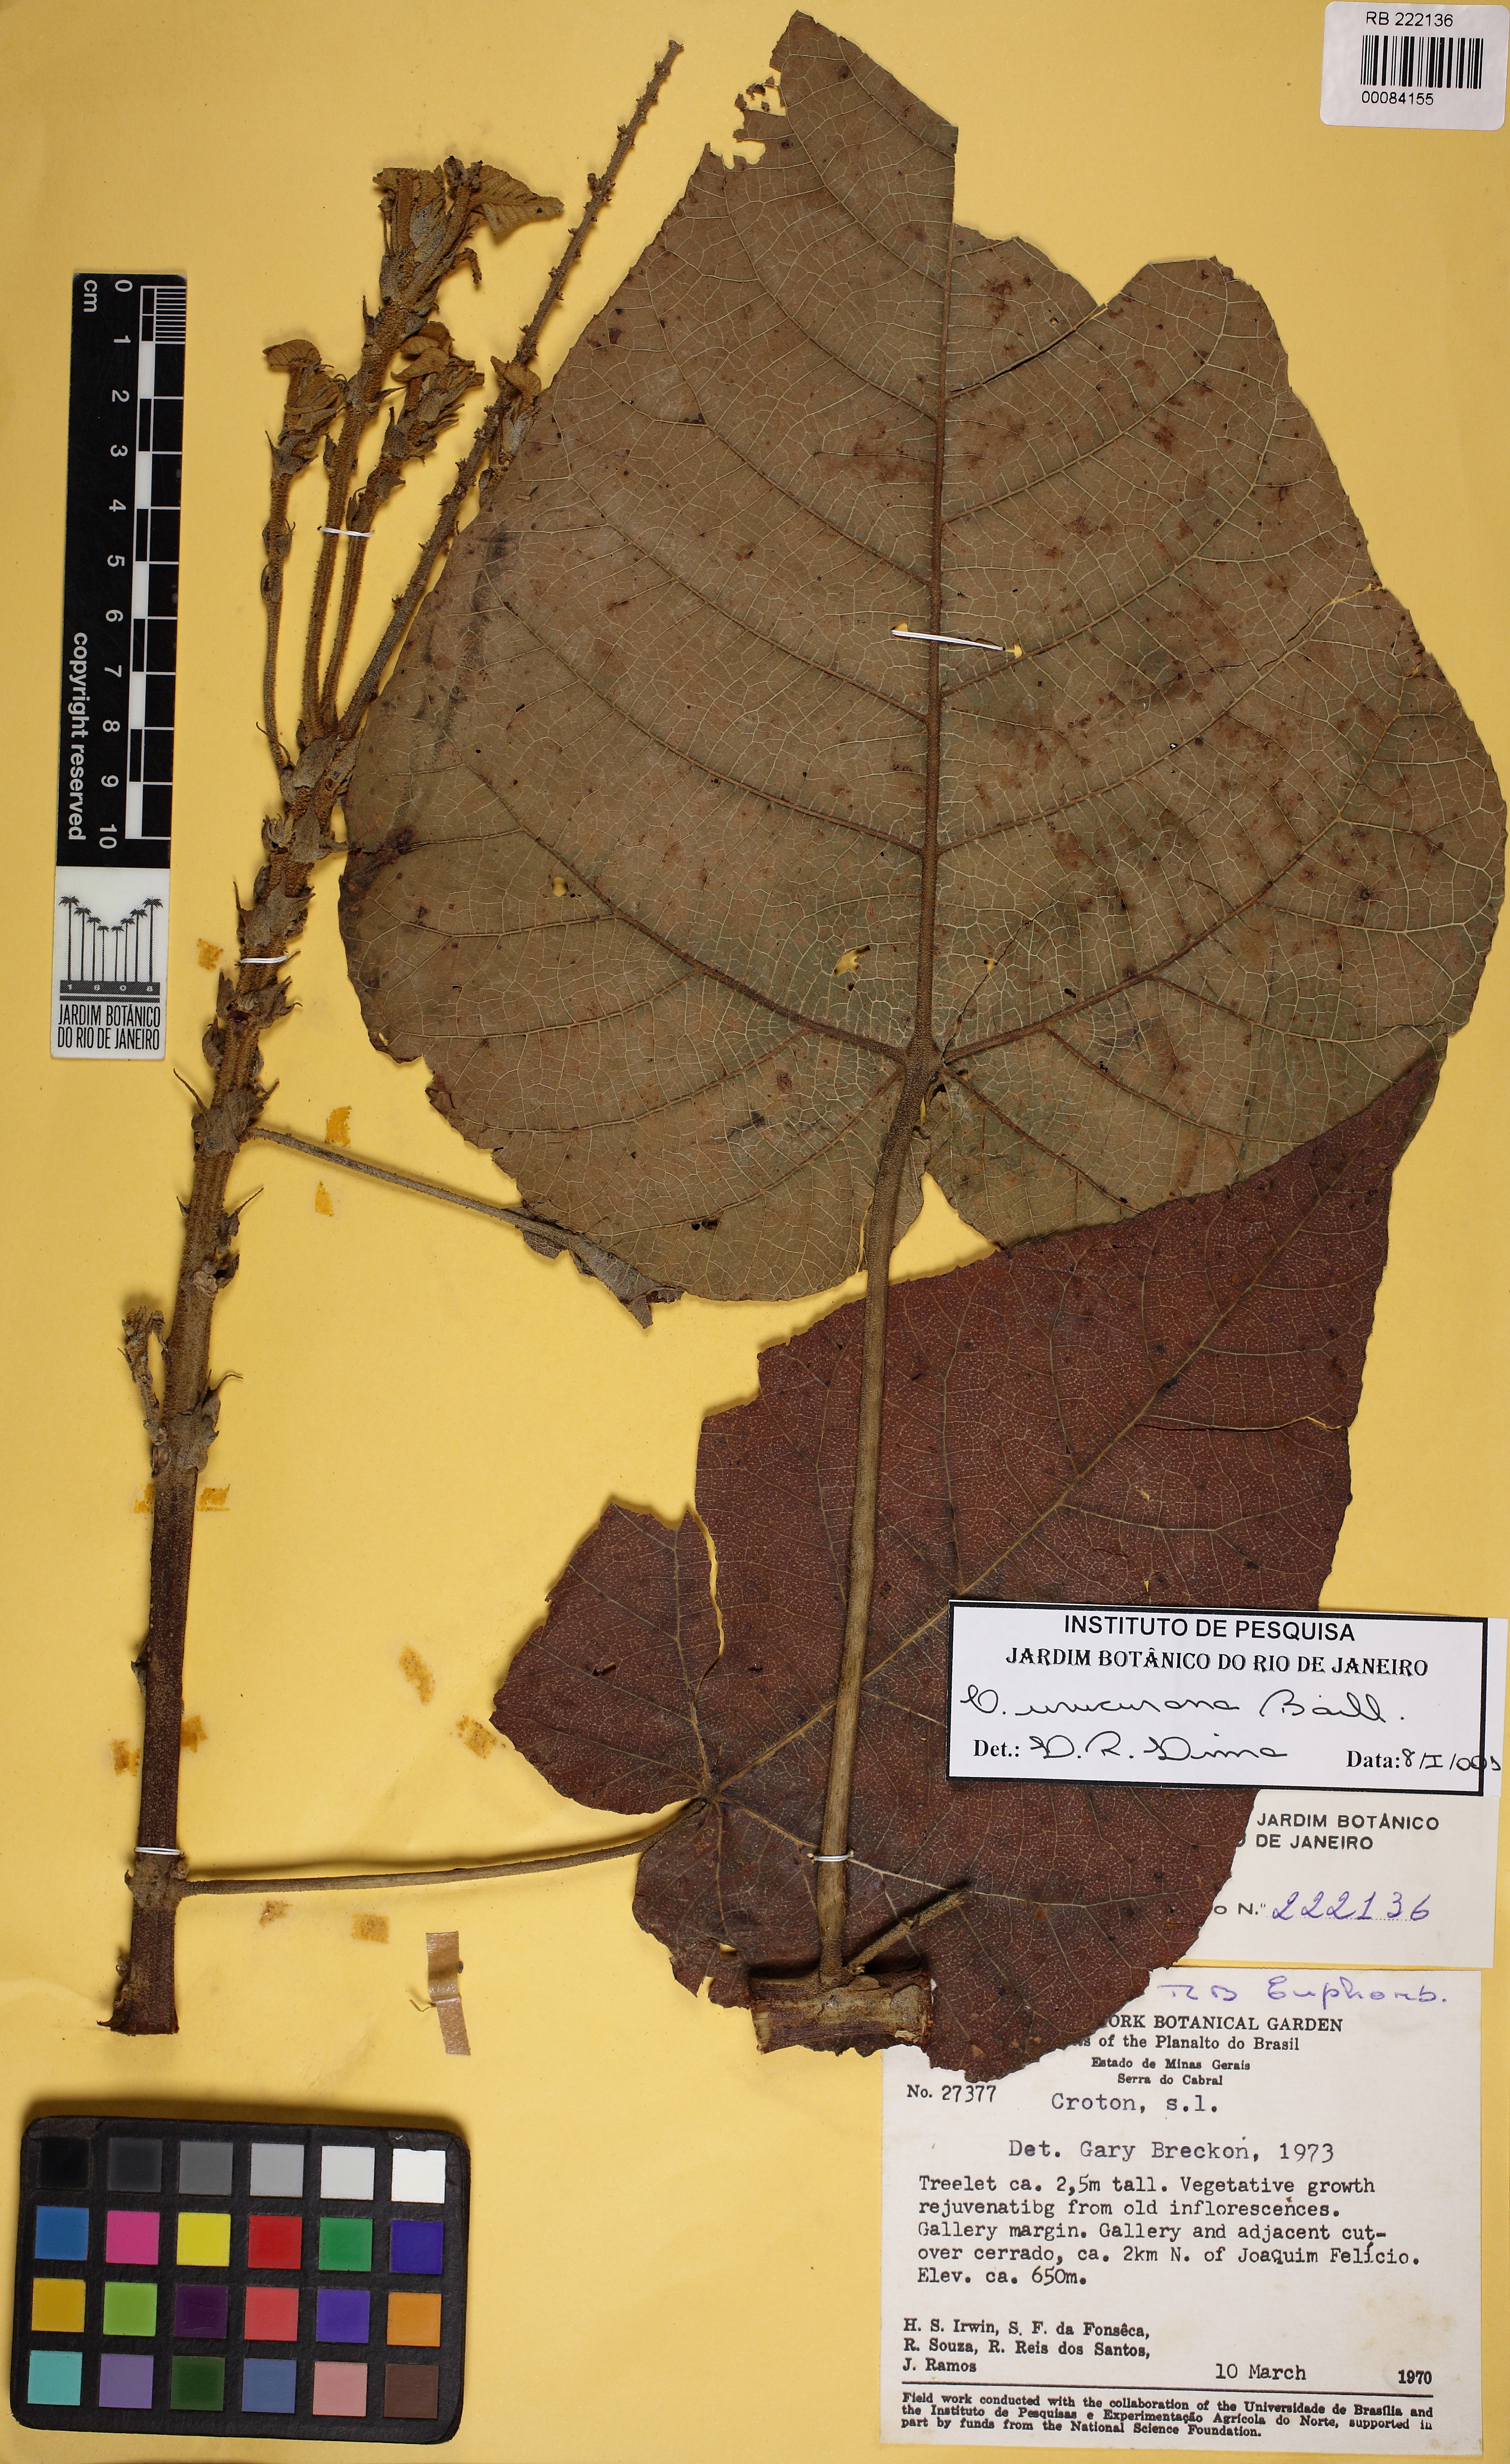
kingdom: Plantae
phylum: Tracheophyta
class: Magnoliopsida
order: Malpighiales
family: Euphorbiaceae
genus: Croton
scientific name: Croton urucurana
